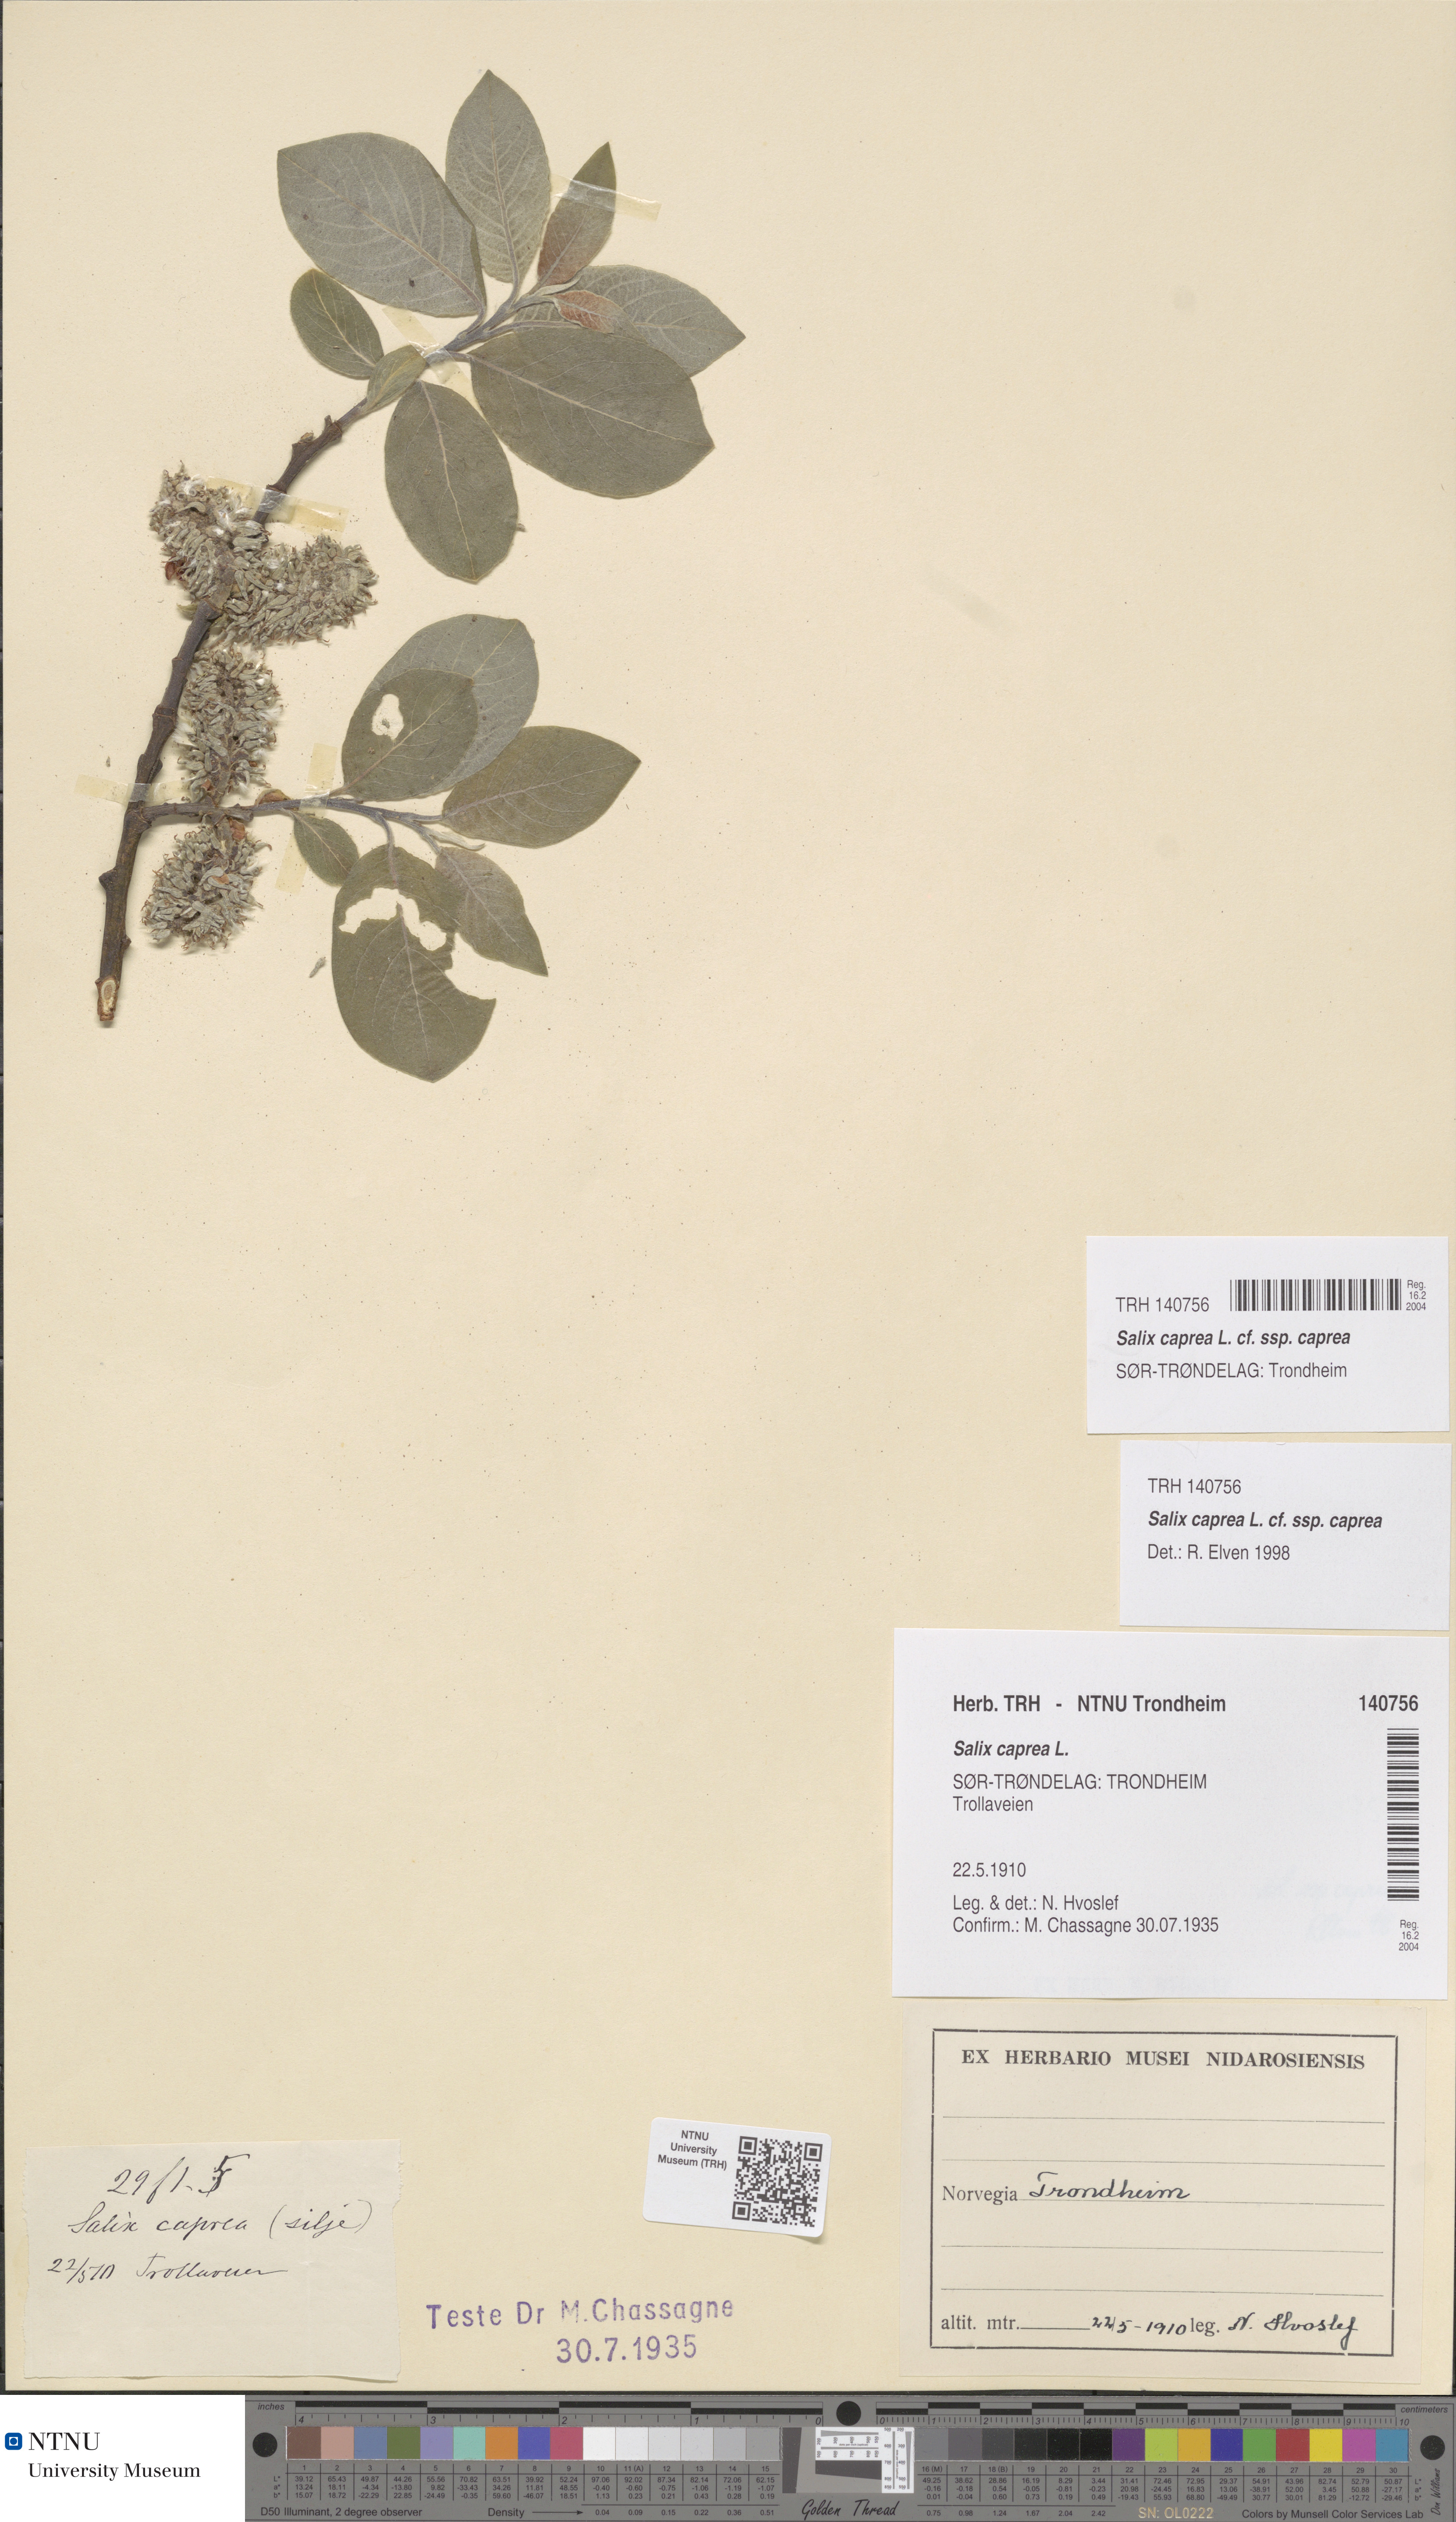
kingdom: Plantae
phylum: Tracheophyta
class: Magnoliopsida
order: Malpighiales
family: Salicaceae
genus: Salix
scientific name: Salix caprea
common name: Goat willow
